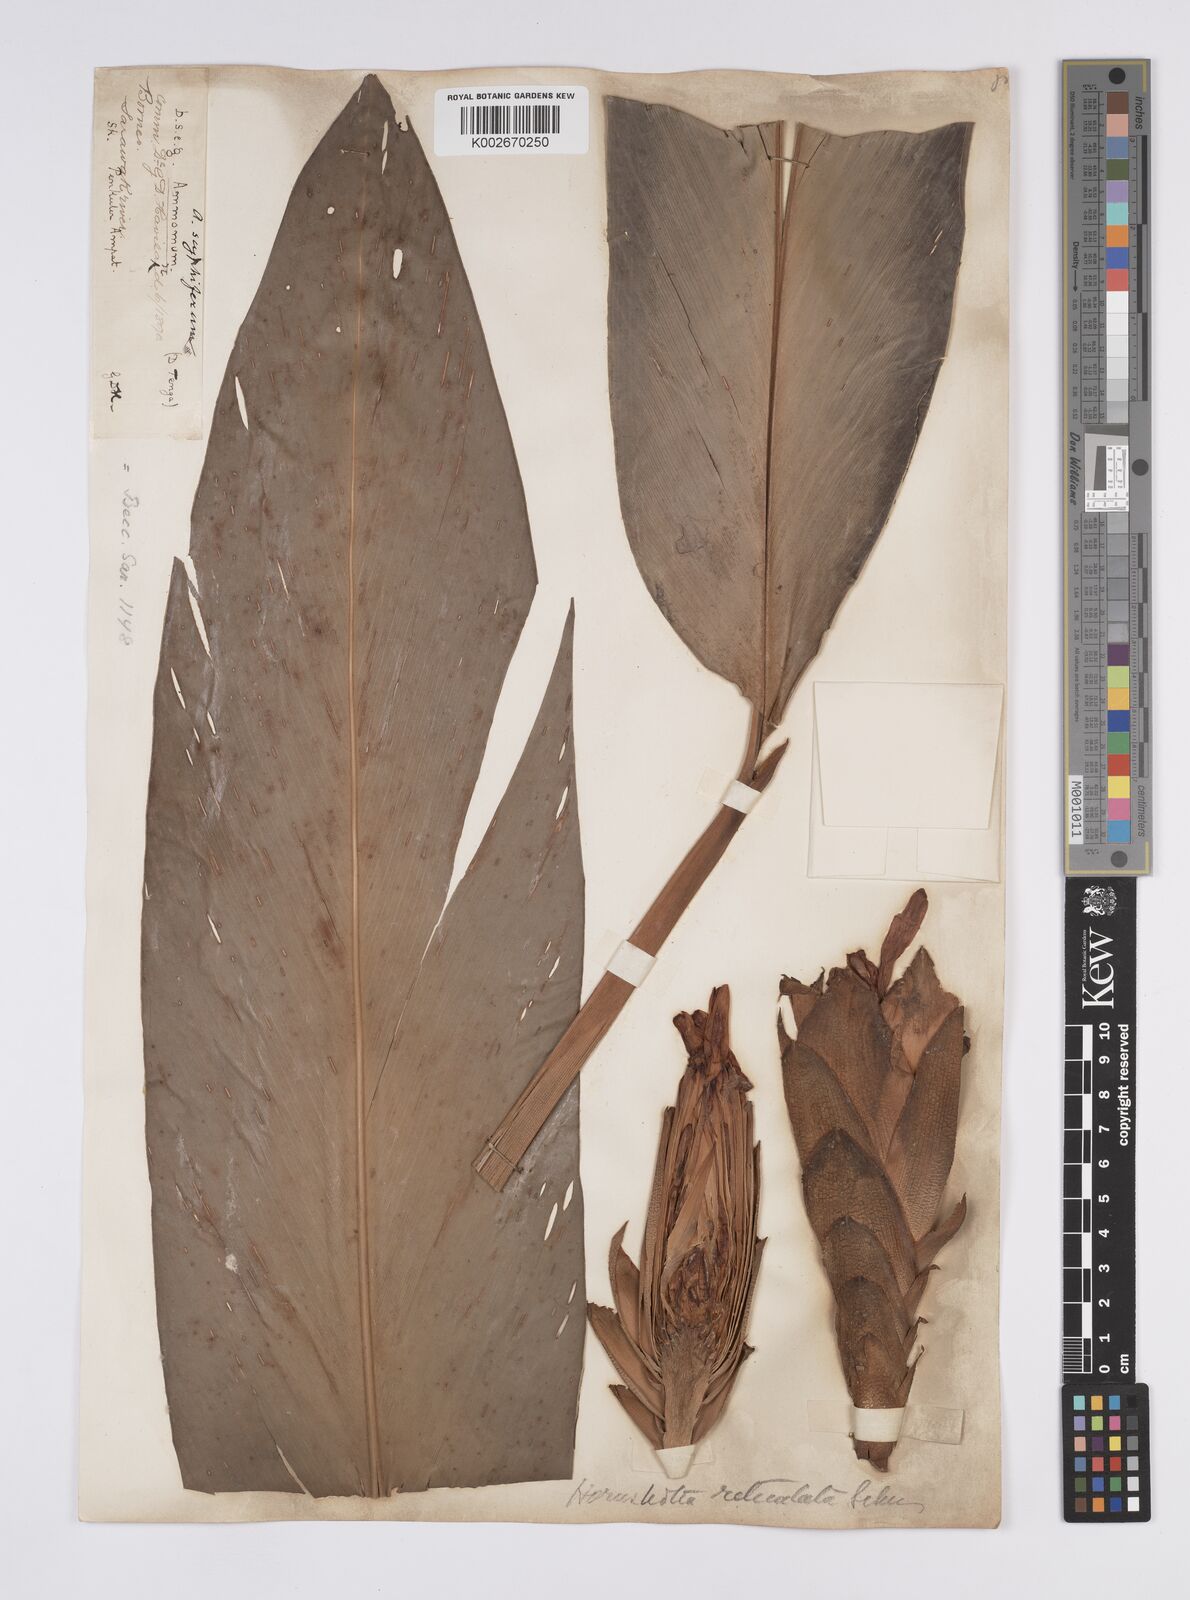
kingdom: Plantae
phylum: Tracheophyta
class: Liliopsida
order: Zingiberales
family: Zingiberaceae
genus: Hornstedtia
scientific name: Hornstedtia reticulata
